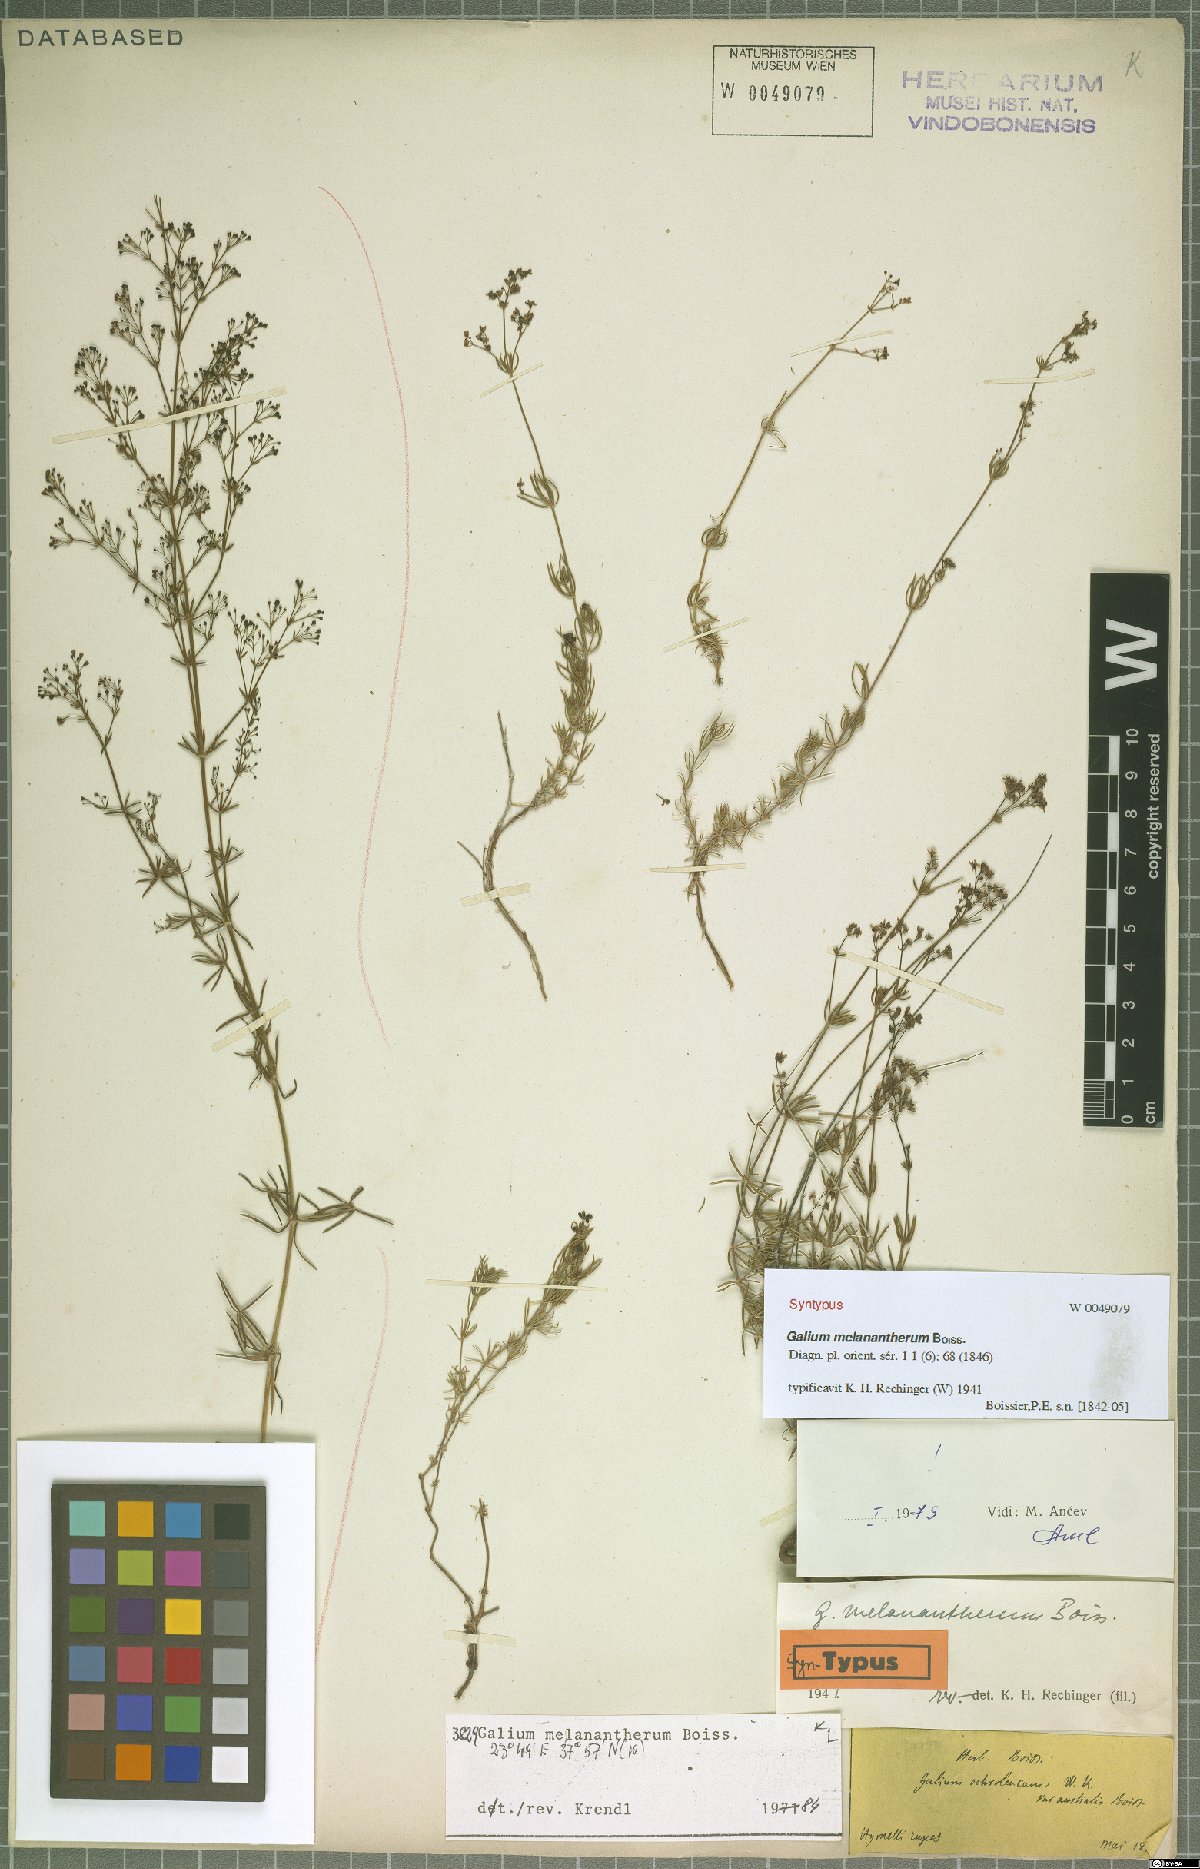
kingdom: Plantae
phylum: Tracheophyta
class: Magnoliopsida
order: Gentianales
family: Rubiaceae
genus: Galium
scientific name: Galium melanantherum
